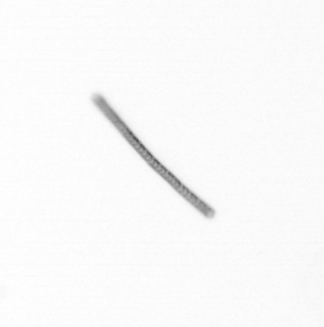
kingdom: Chromista
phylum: Ochrophyta
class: Bacillariophyceae
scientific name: Bacillariophyceae
